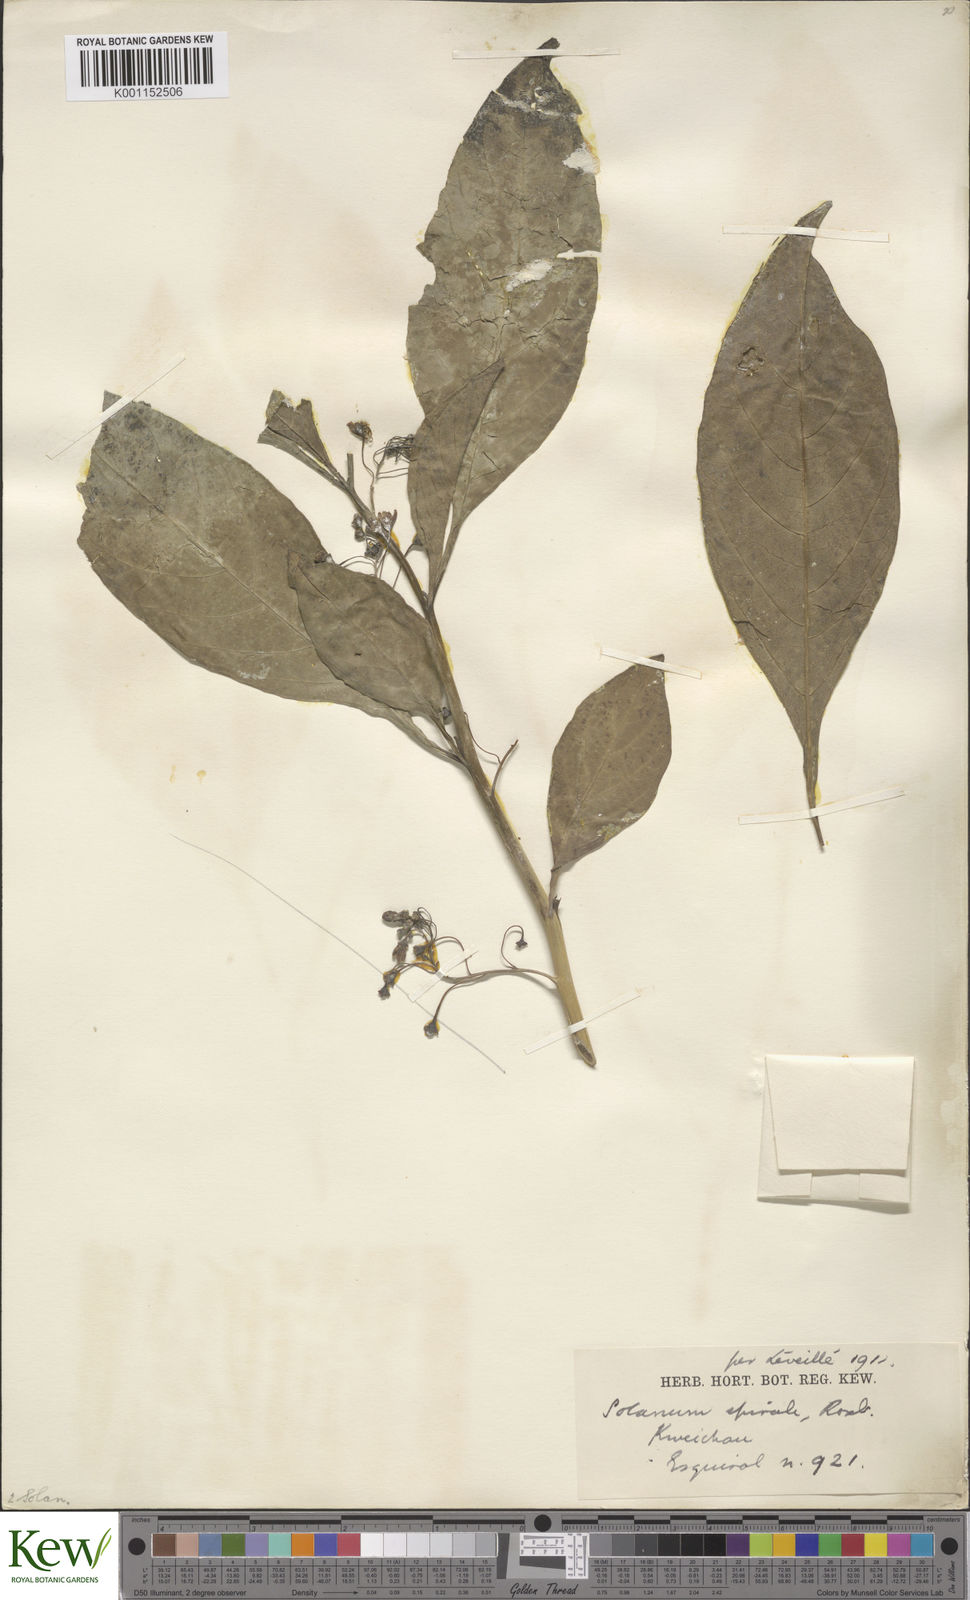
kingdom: Plantae
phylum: Tracheophyta
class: Magnoliopsida
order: Solanales
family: Solanaceae
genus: Solanum
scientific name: Solanum spirale
